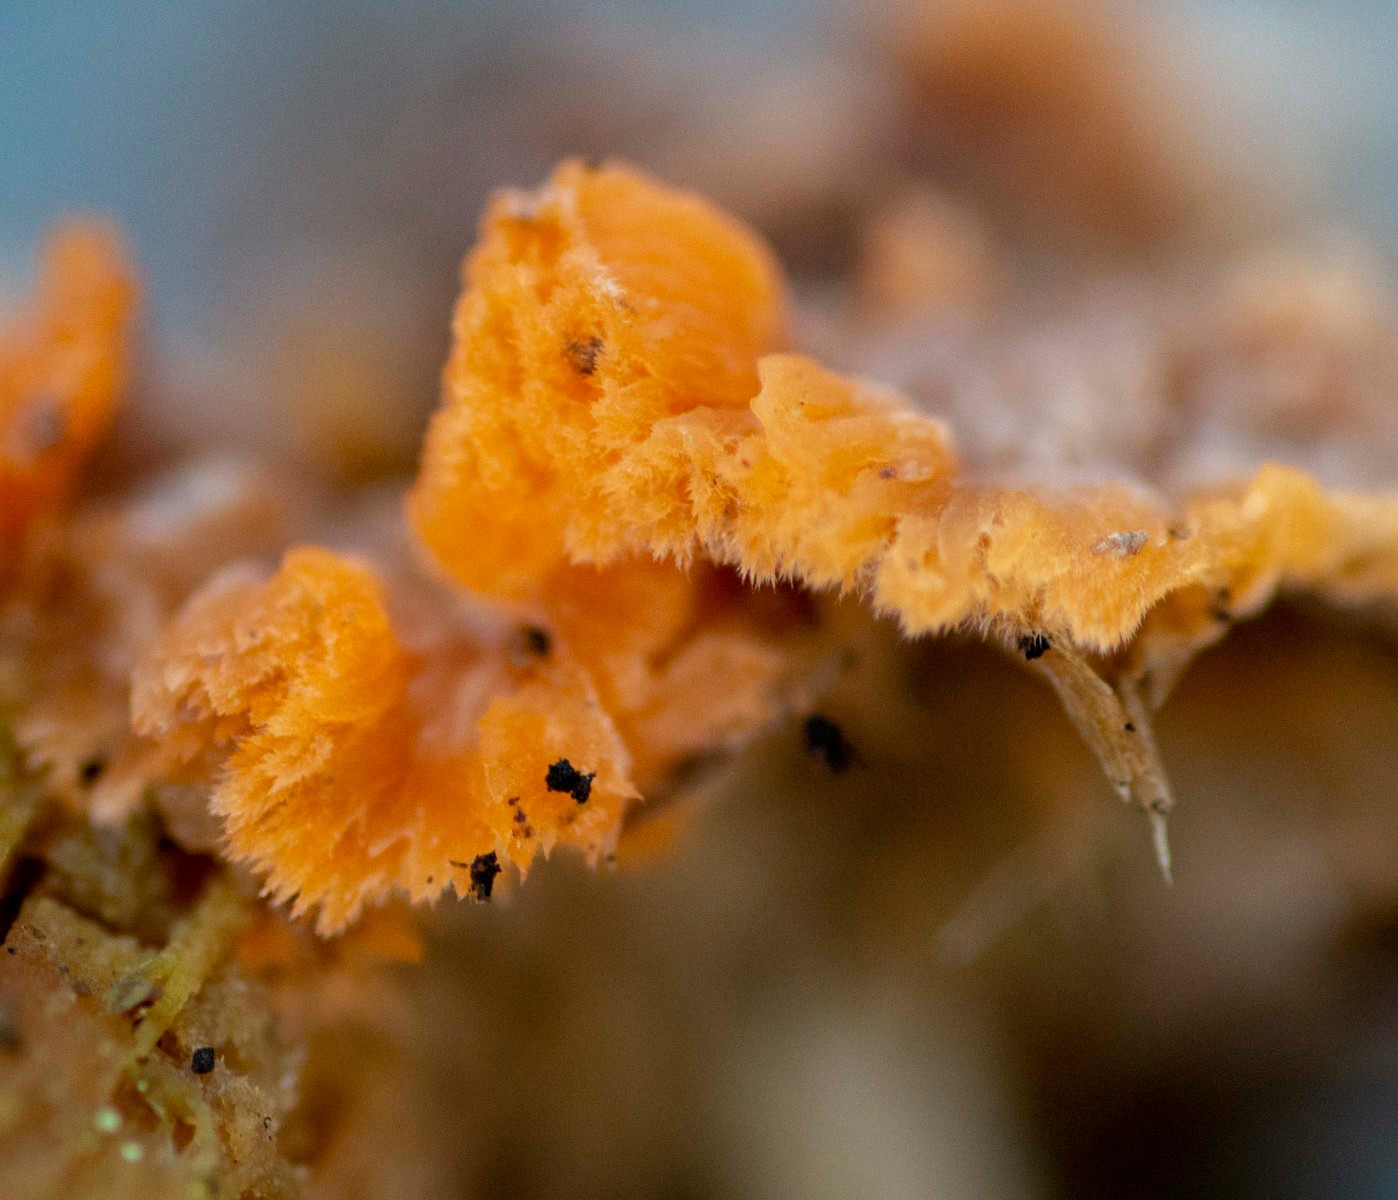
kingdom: Fungi
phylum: Basidiomycota
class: Agaricomycetes
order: Polyporales
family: Meruliaceae
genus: Phlebia
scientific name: Phlebia radiata
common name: stråle-åresvamp
